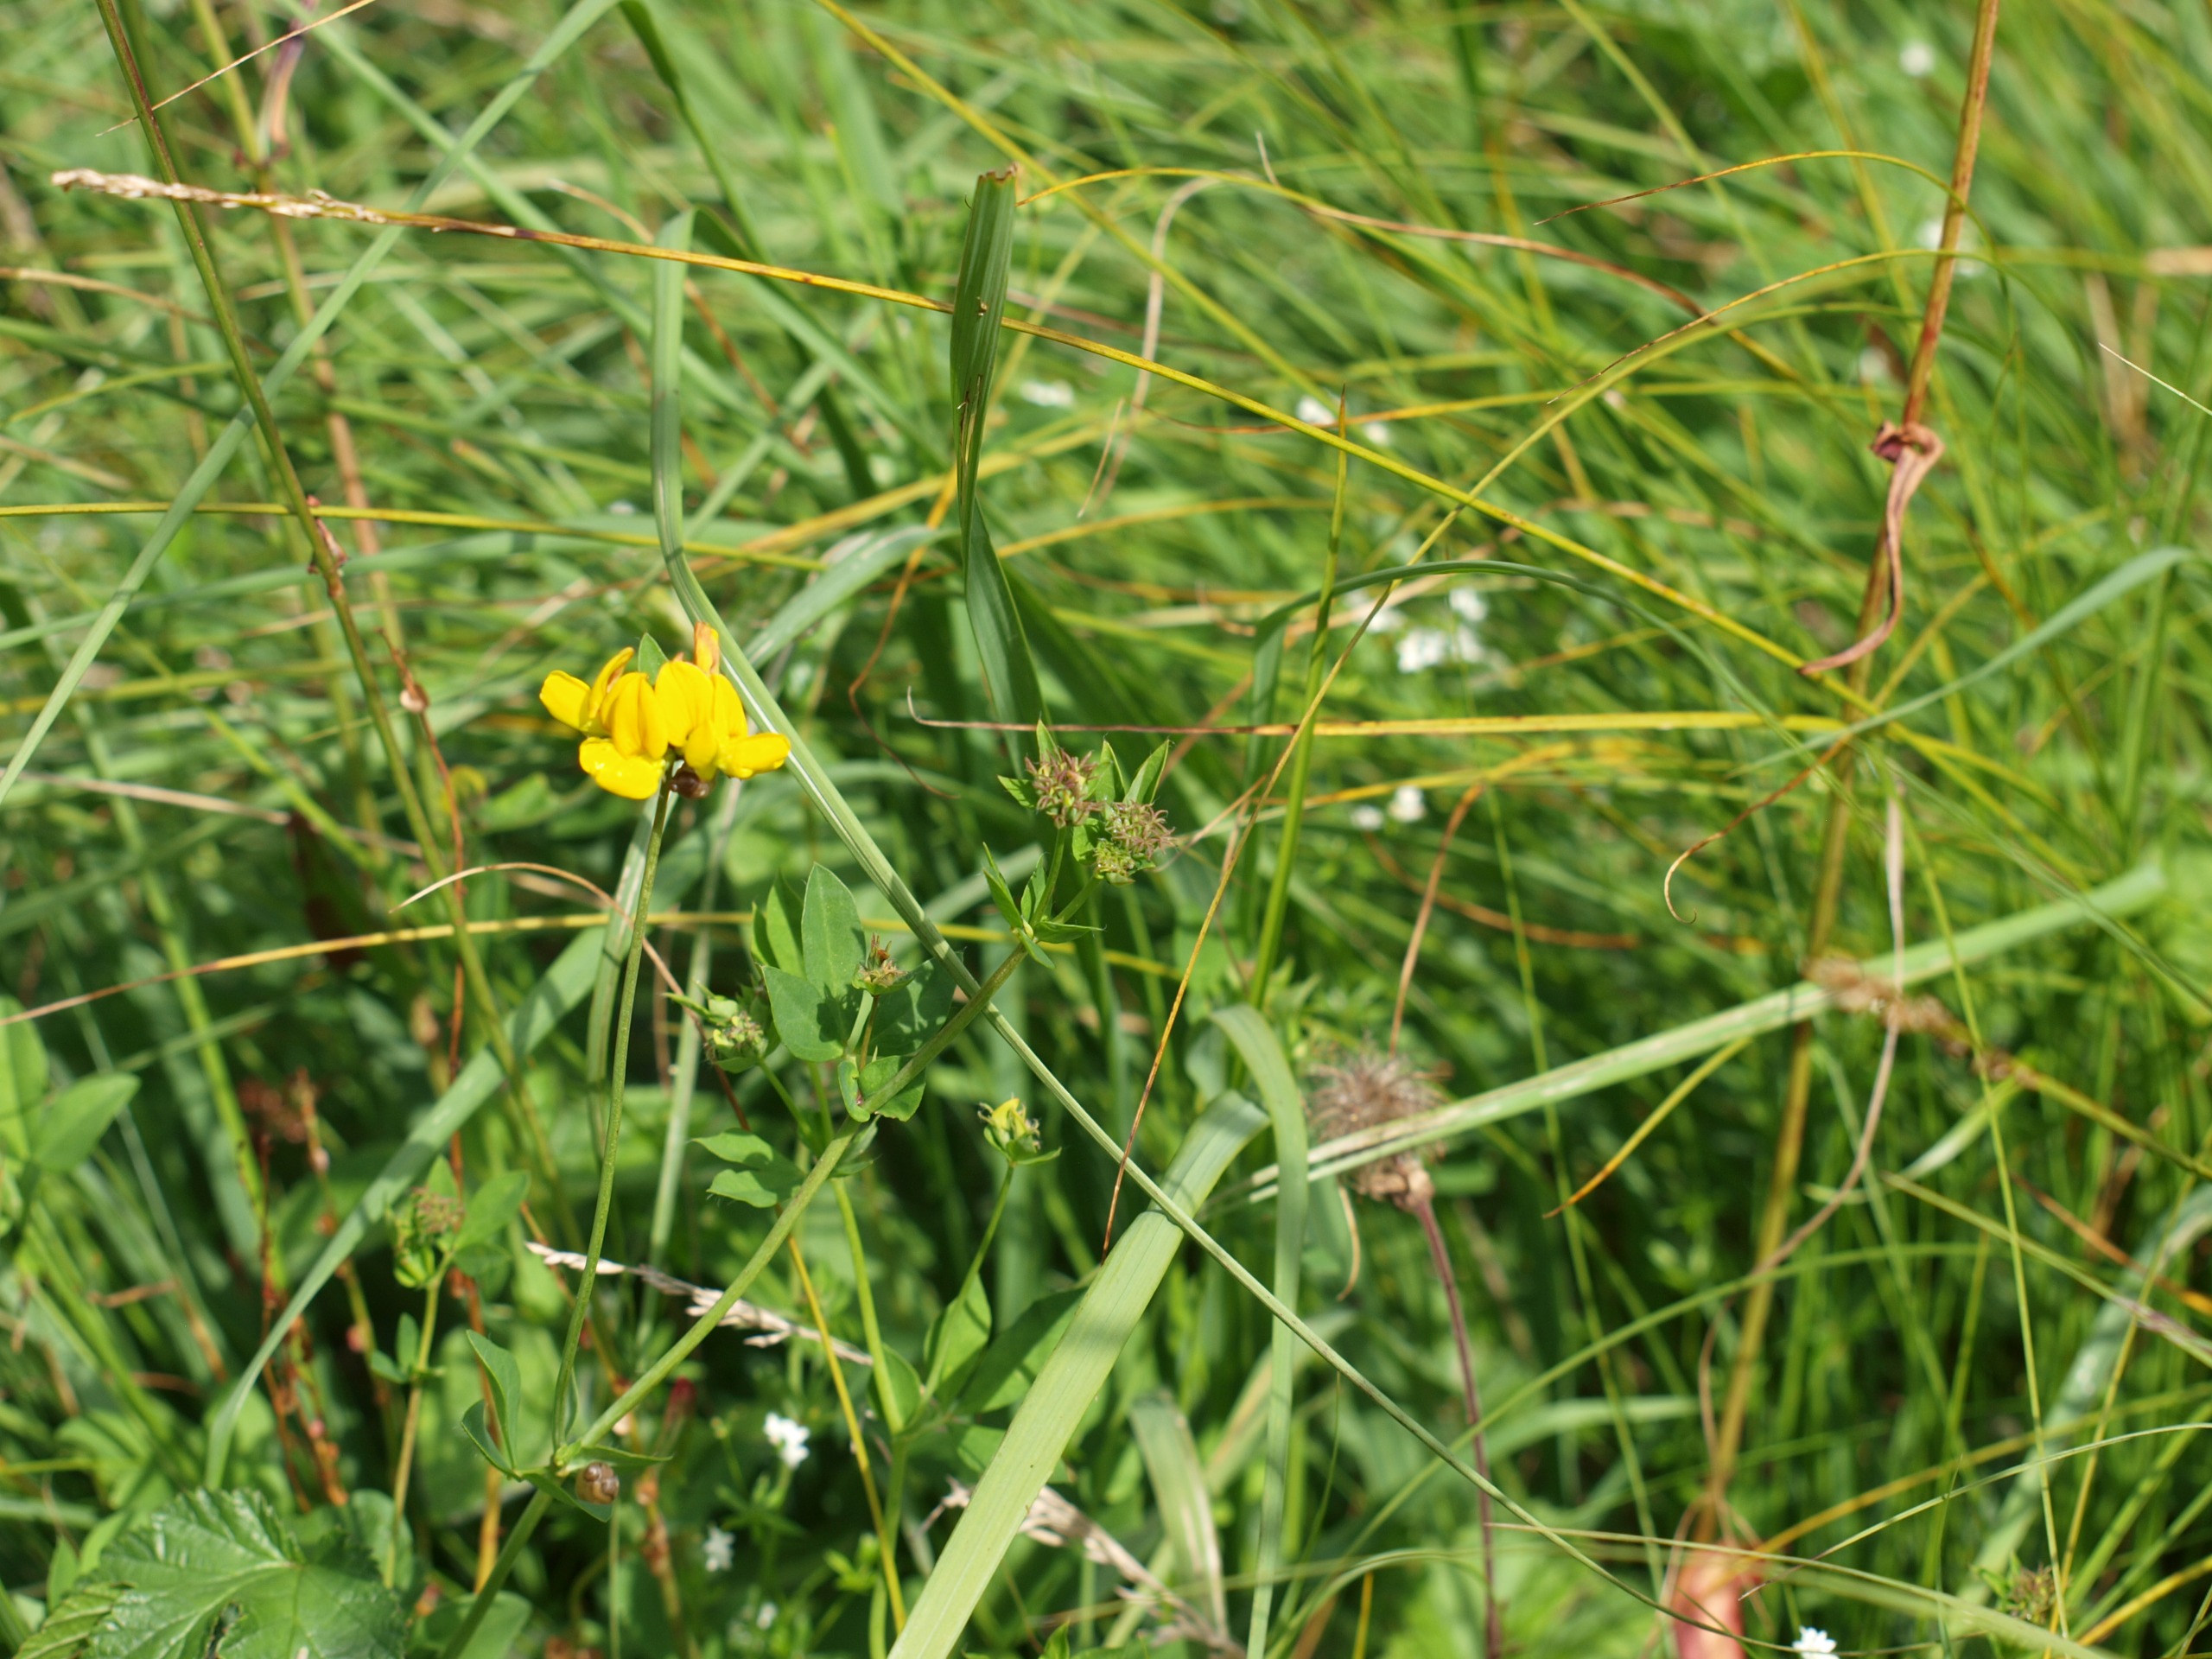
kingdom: Plantae
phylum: Tracheophyta
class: Magnoliopsida
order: Fabales
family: Fabaceae
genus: Lotus
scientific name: Lotus pedunculatus
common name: Sump-kællingetand
